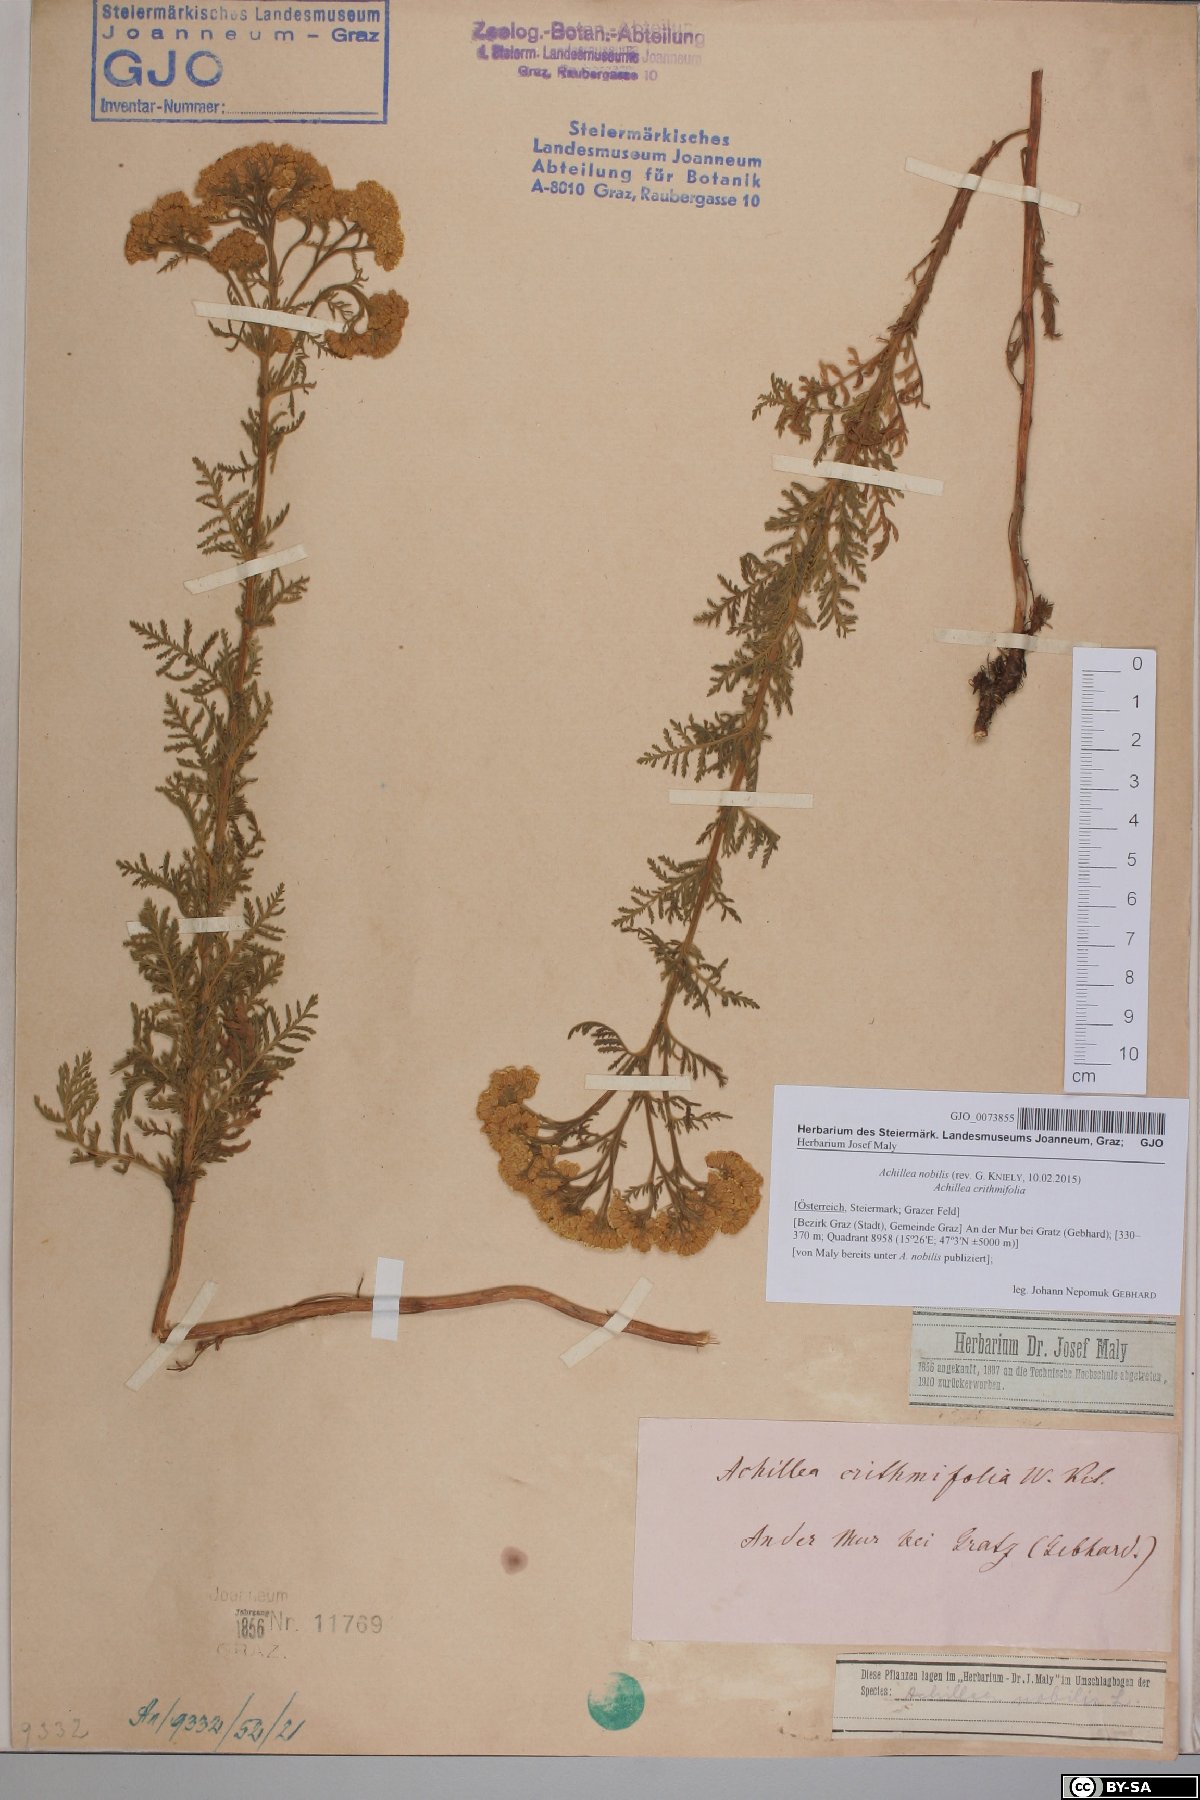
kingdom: Plantae
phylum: Tracheophyta
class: Magnoliopsida
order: Asterales
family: Asteraceae
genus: Achillea
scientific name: Achillea nobilis
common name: Noble yarrow
